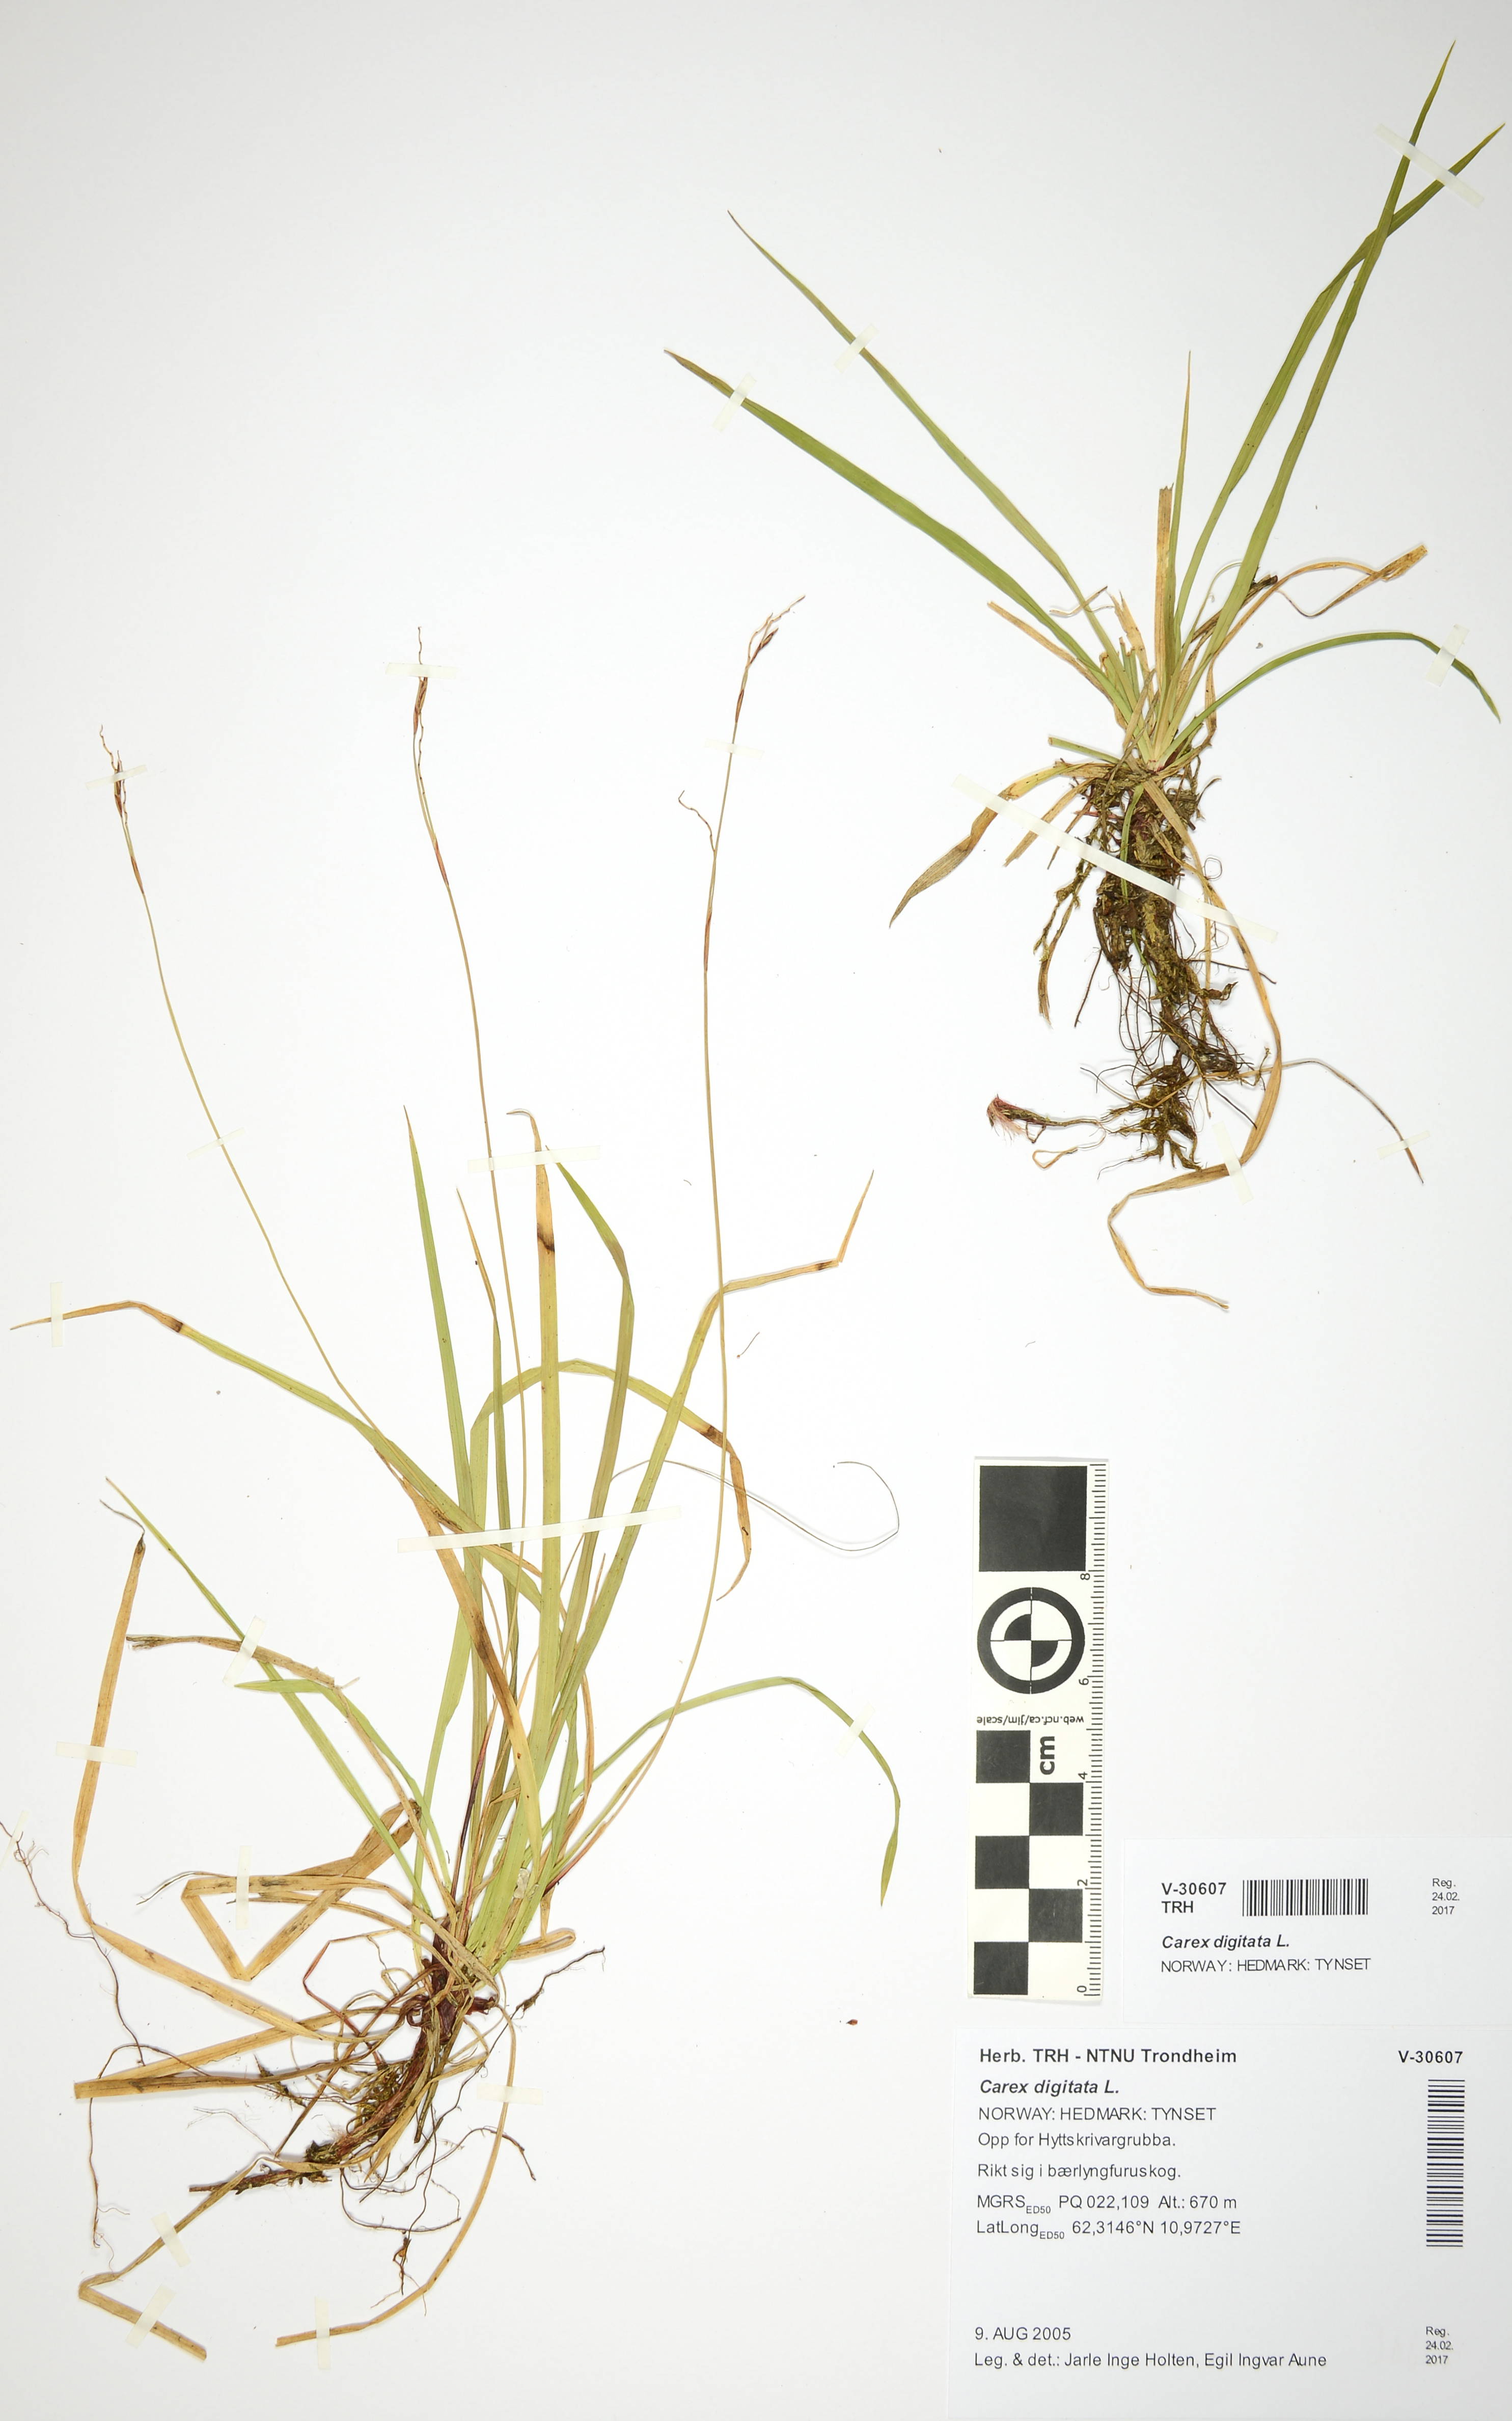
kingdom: Plantae
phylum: Tracheophyta
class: Liliopsida
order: Poales
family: Cyperaceae
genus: Carex
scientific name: Carex digitata
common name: Fingered sedge
